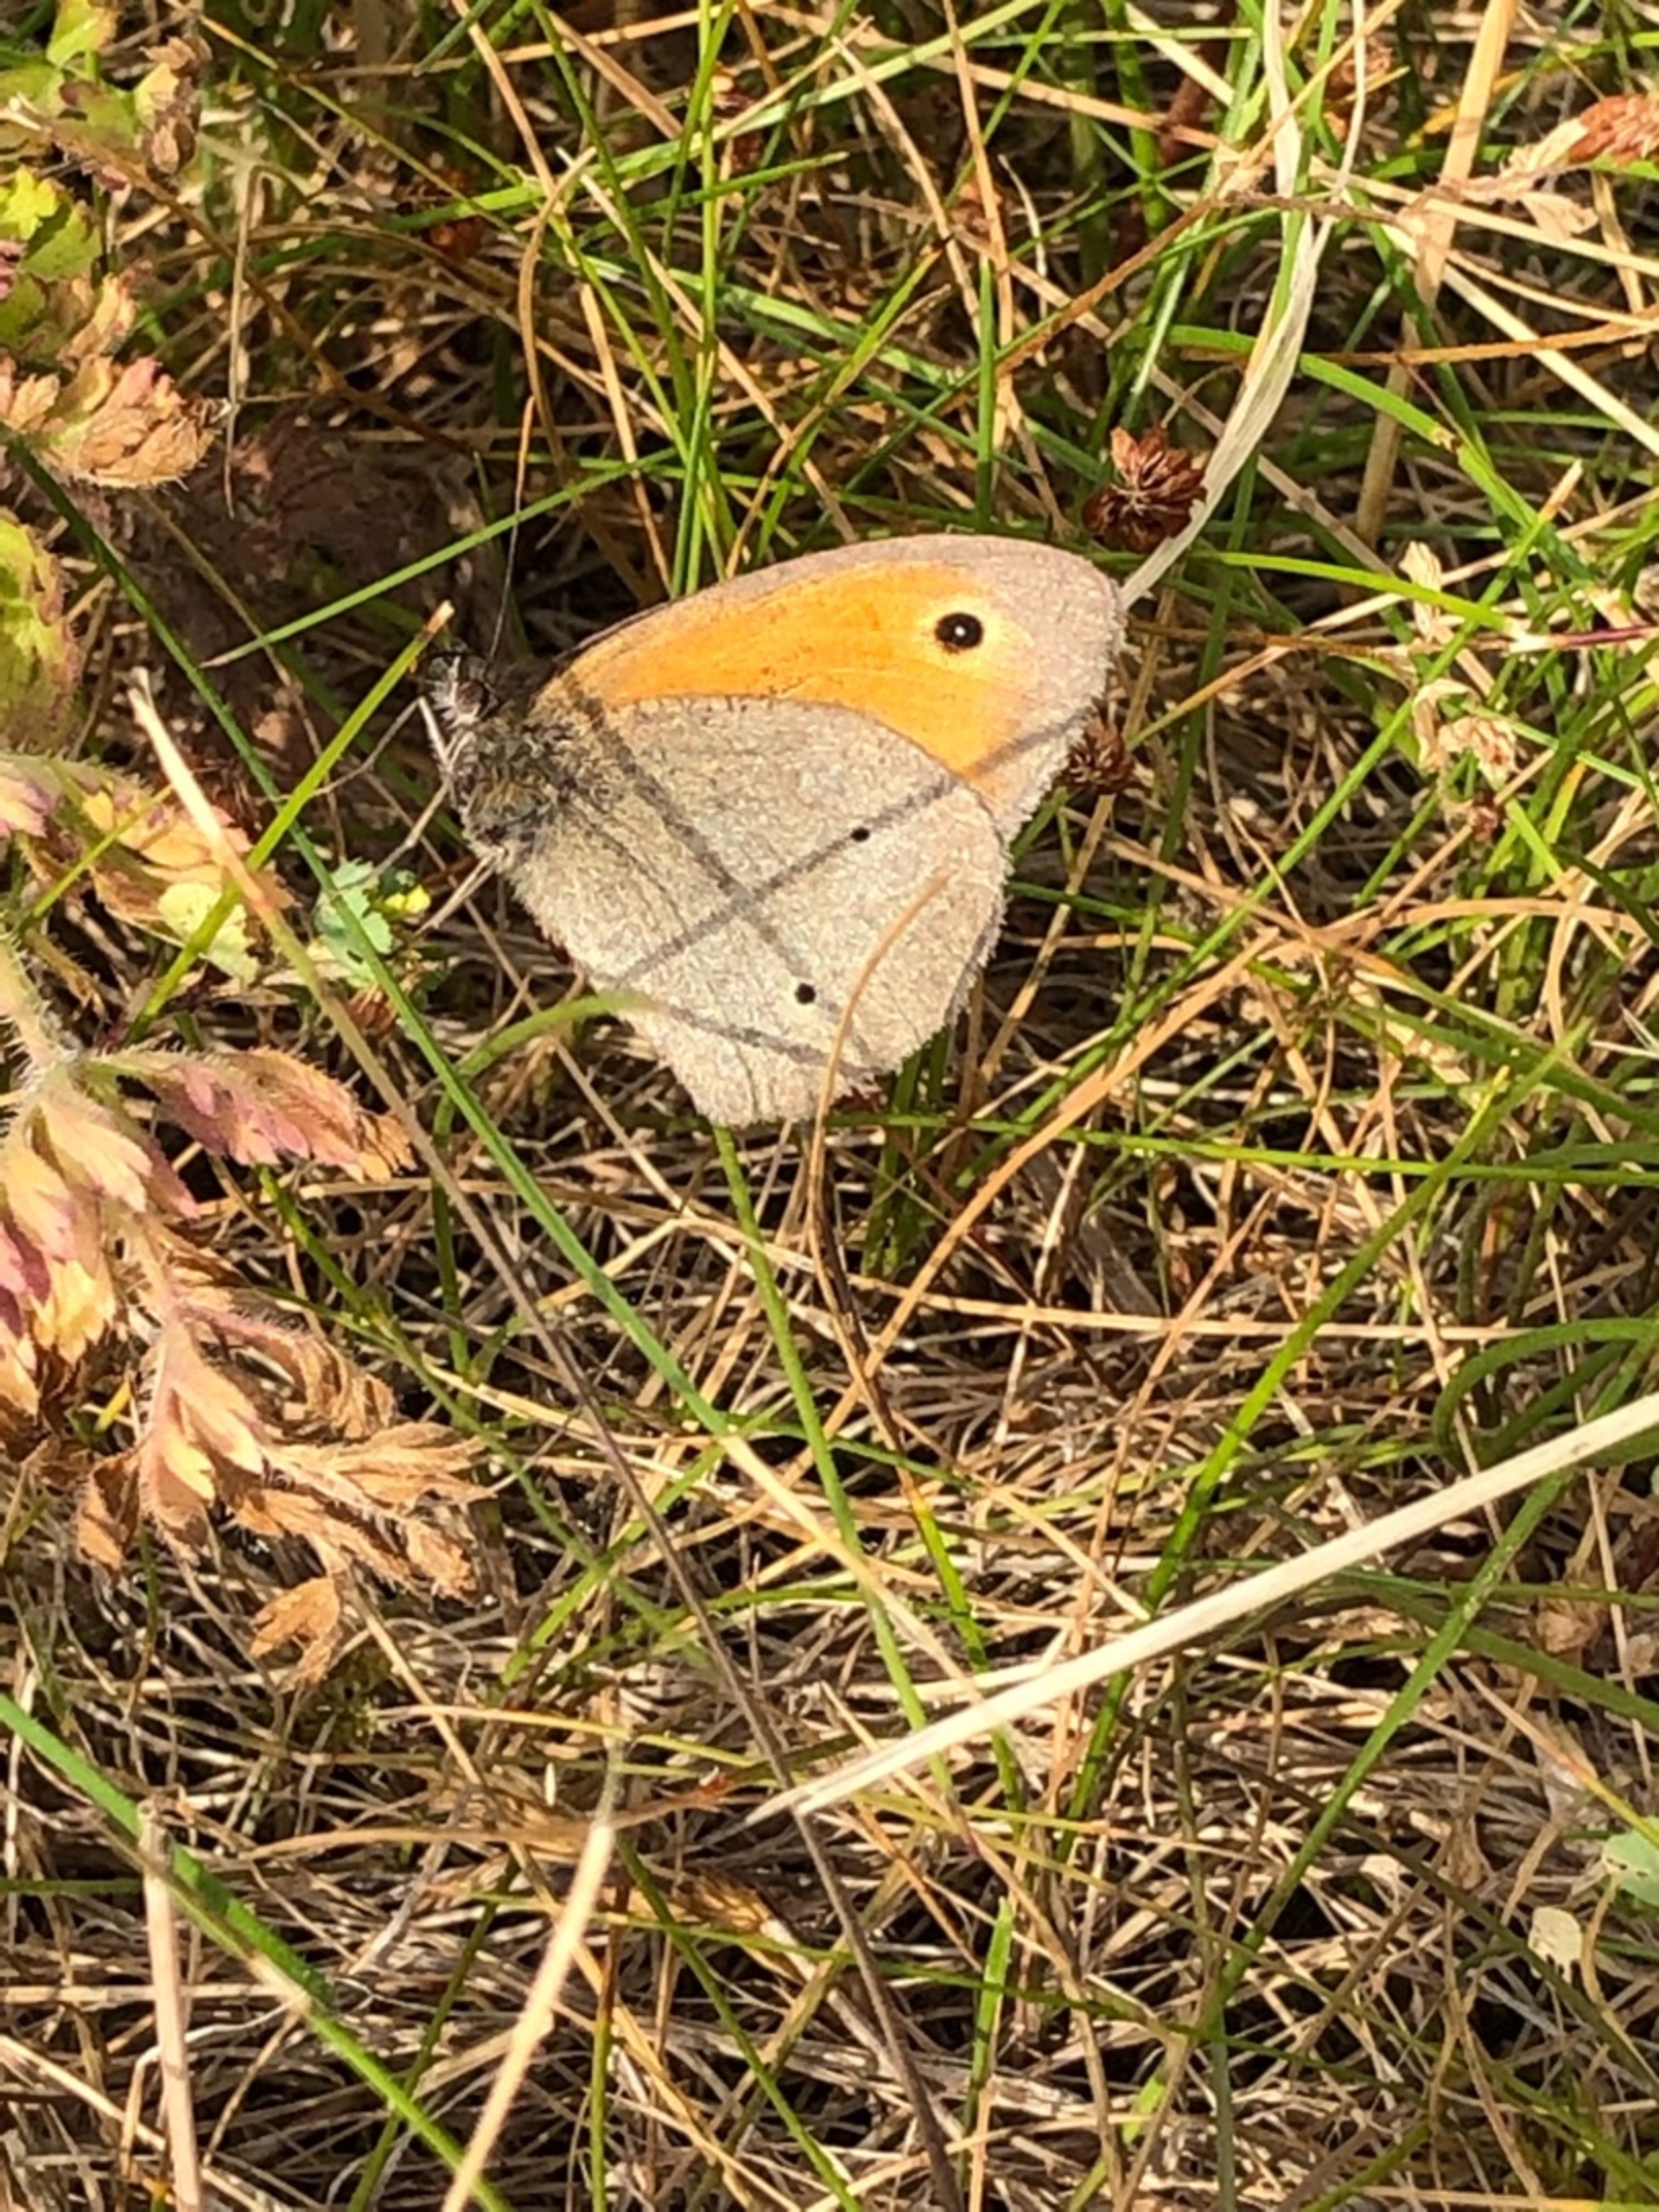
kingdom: Animalia
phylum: Arthropoda
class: Insecta
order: Lepidoptera
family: Nymphalidae
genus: Maniola
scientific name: Maniola jurtina
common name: Græsrandøje
